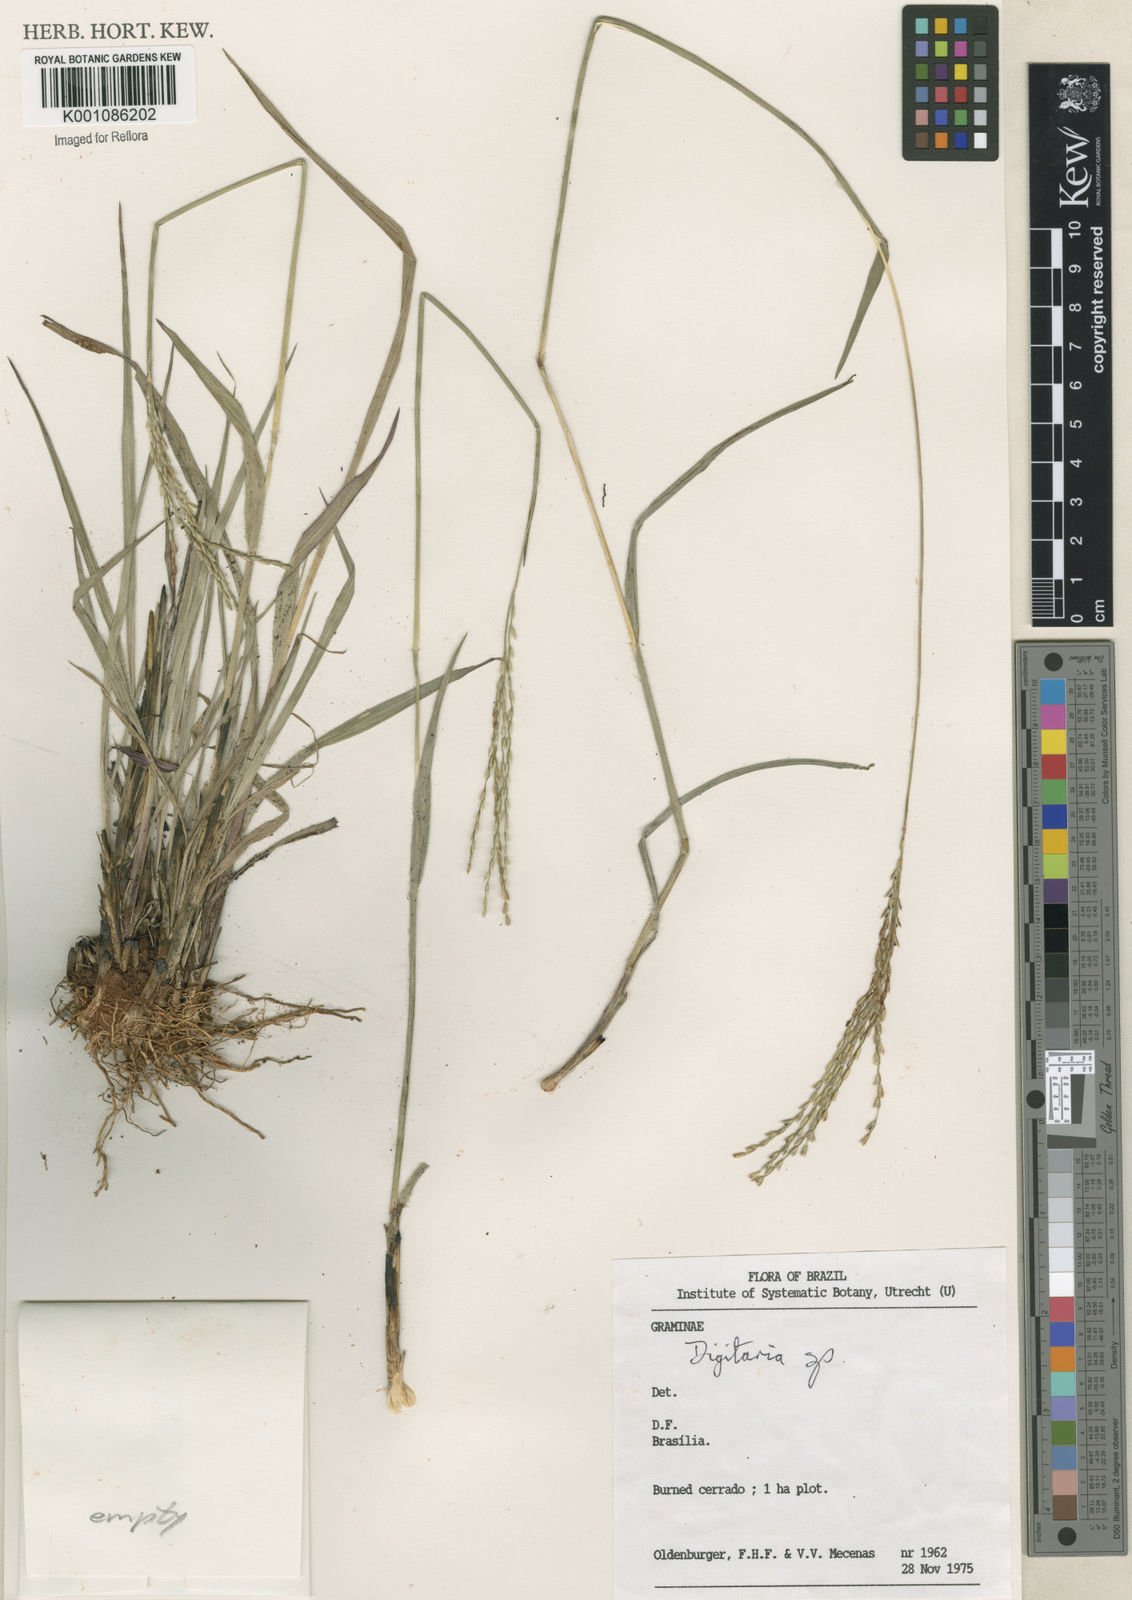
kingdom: Plantae
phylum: Tracheophyta
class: Liliopsida
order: Poales
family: Poaceae
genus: Axonopus
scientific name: Axonopus
